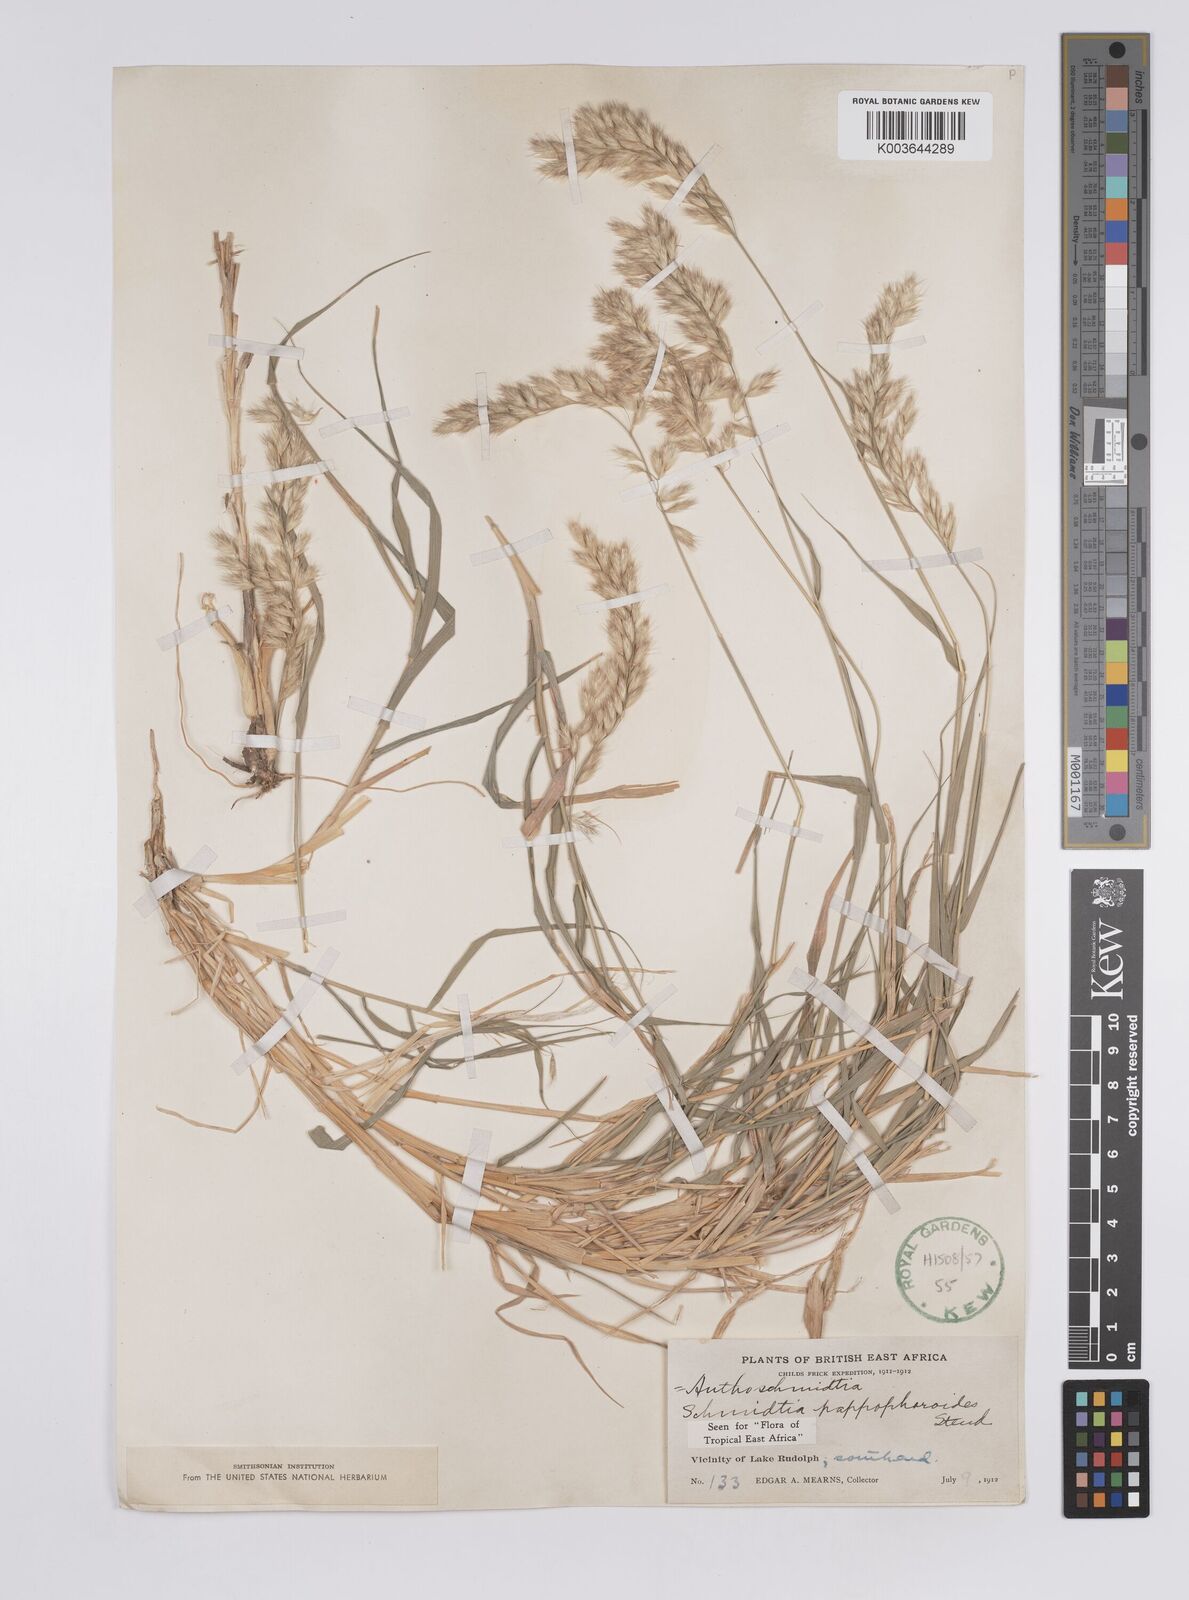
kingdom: Plantae
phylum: Tracheophyta
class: Liliopsida
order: Poales
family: Poaceae
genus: Schmidtia
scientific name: Schmidtia pappophoroides
